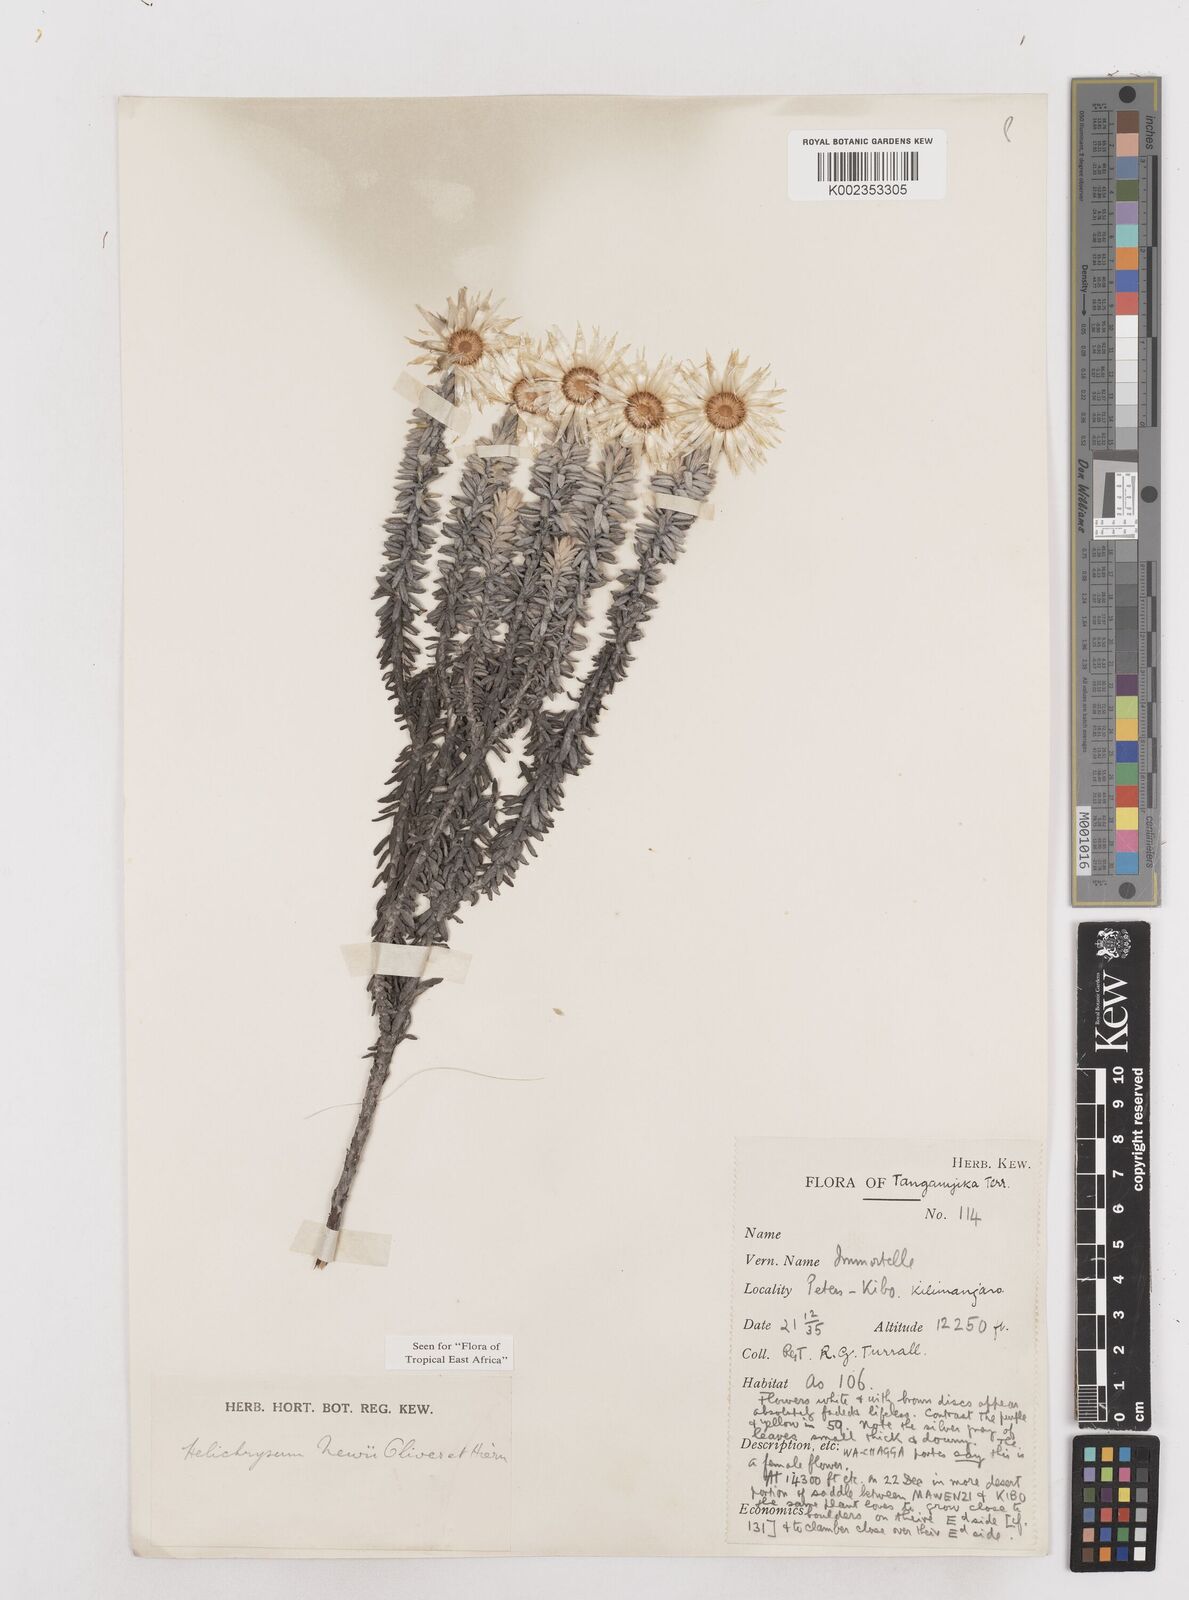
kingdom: Plantae
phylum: Tracheophyta
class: Magnoliopsida
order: Asterales
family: Asteraceae
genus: Helichrysum
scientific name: Helichrysum newii
